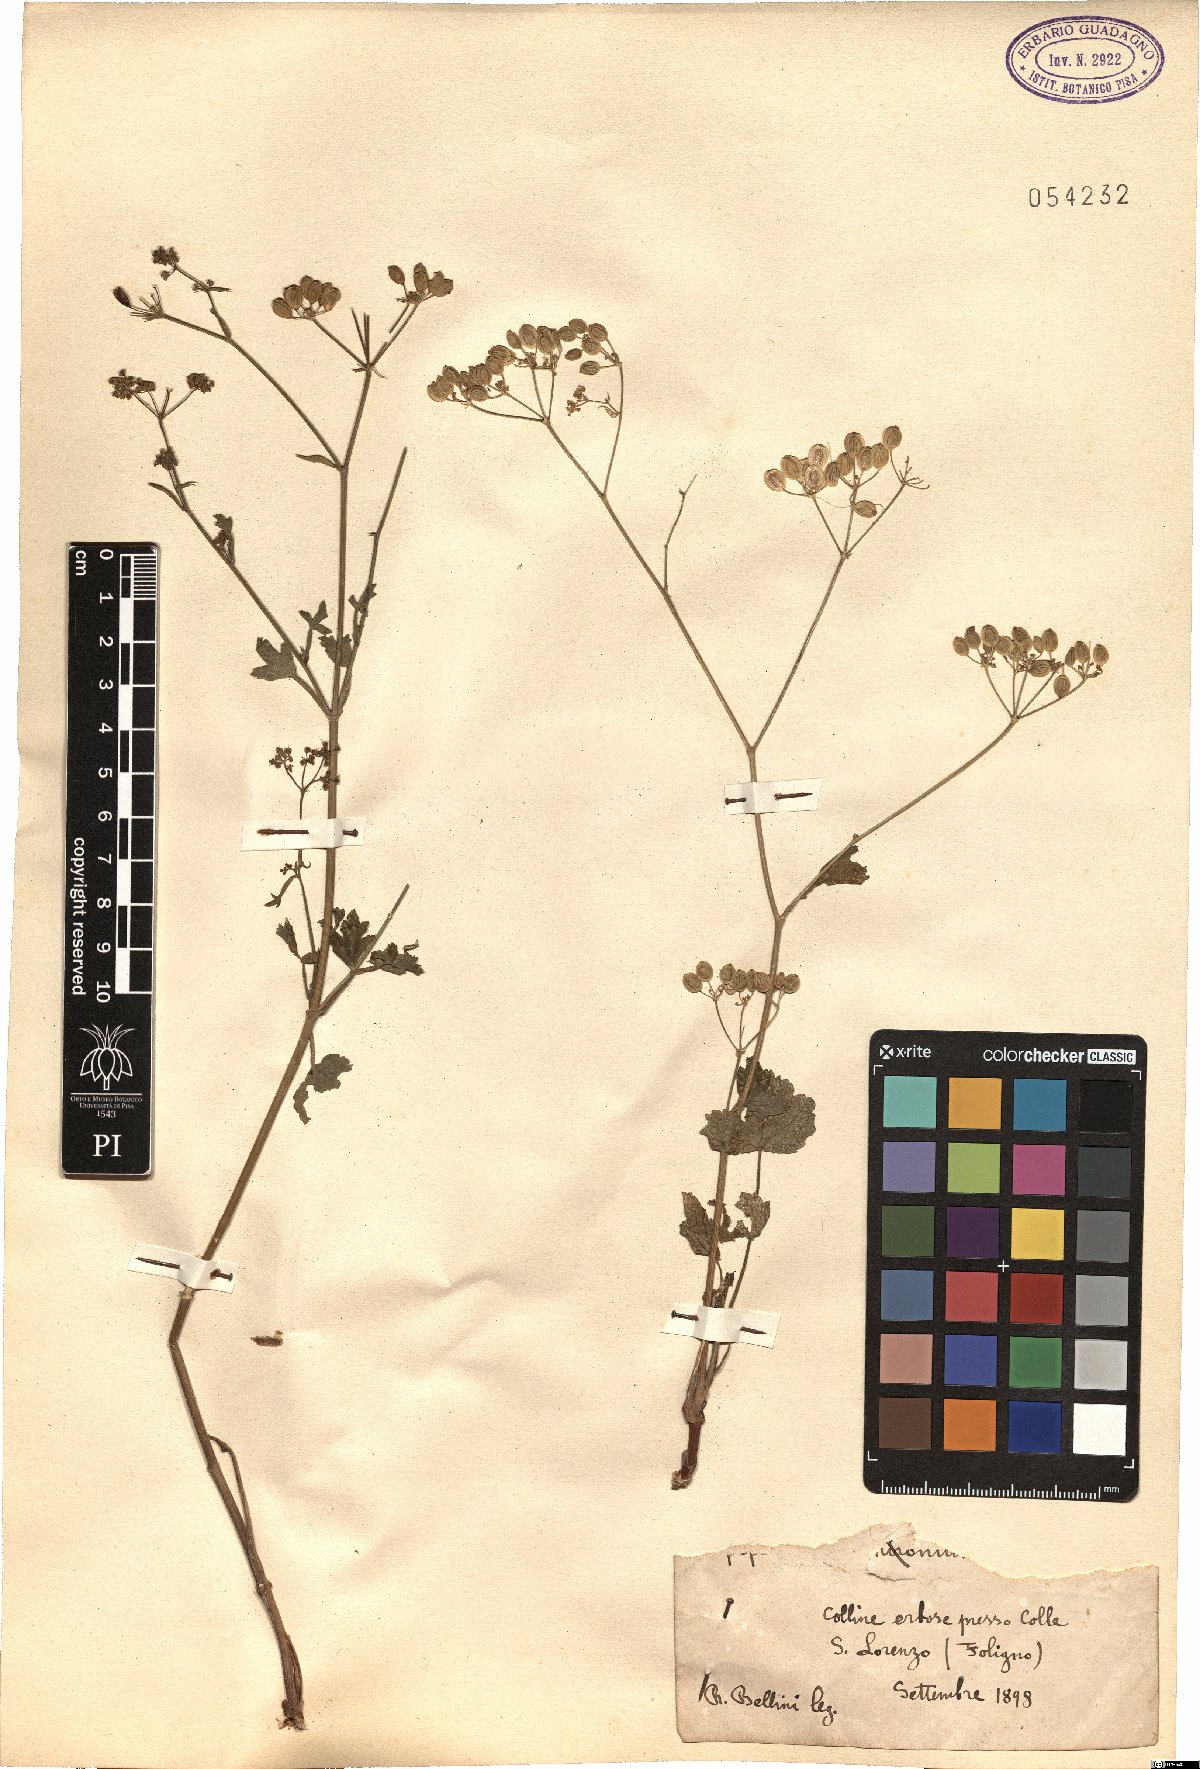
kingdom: Plantae
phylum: Tracheophyta
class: Magnoliopsida
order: Apiales
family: Apiaceae
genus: Pastinaca
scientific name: Pastinaca
